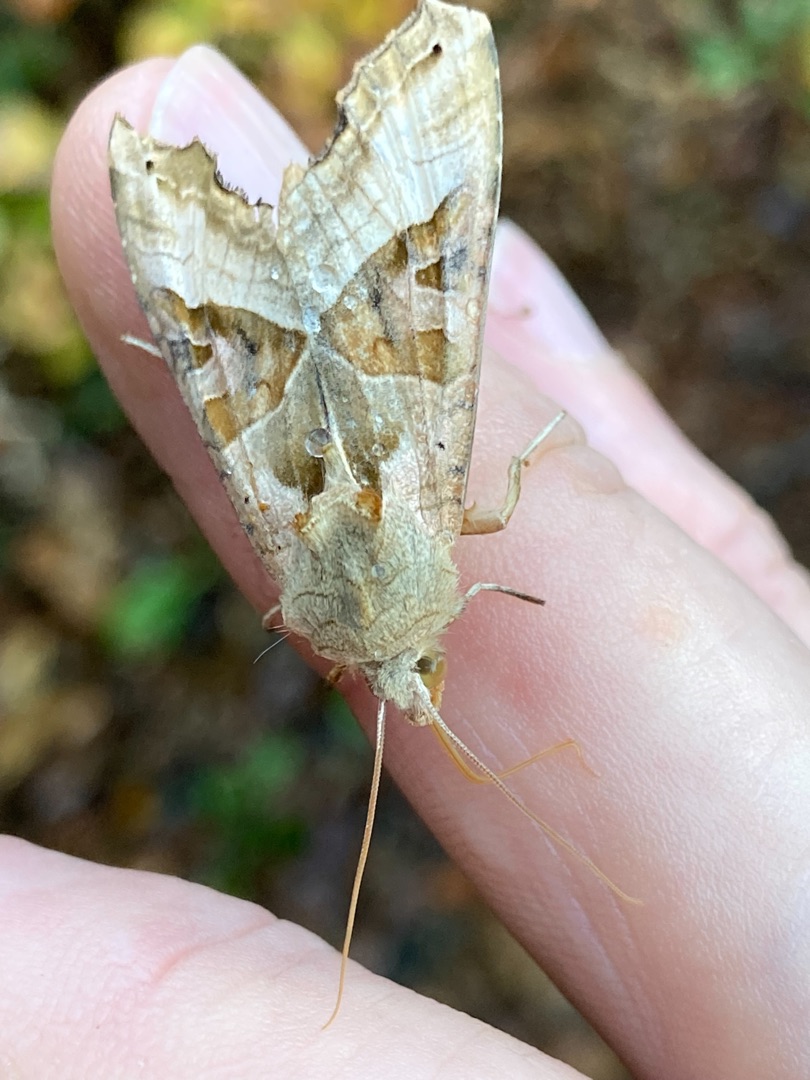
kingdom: Animalia
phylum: Arthropoda
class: Insecta
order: Lepidoptera
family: Noctuidae
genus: Phlogophora
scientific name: Phlogophora meticulosa
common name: Agatugle
